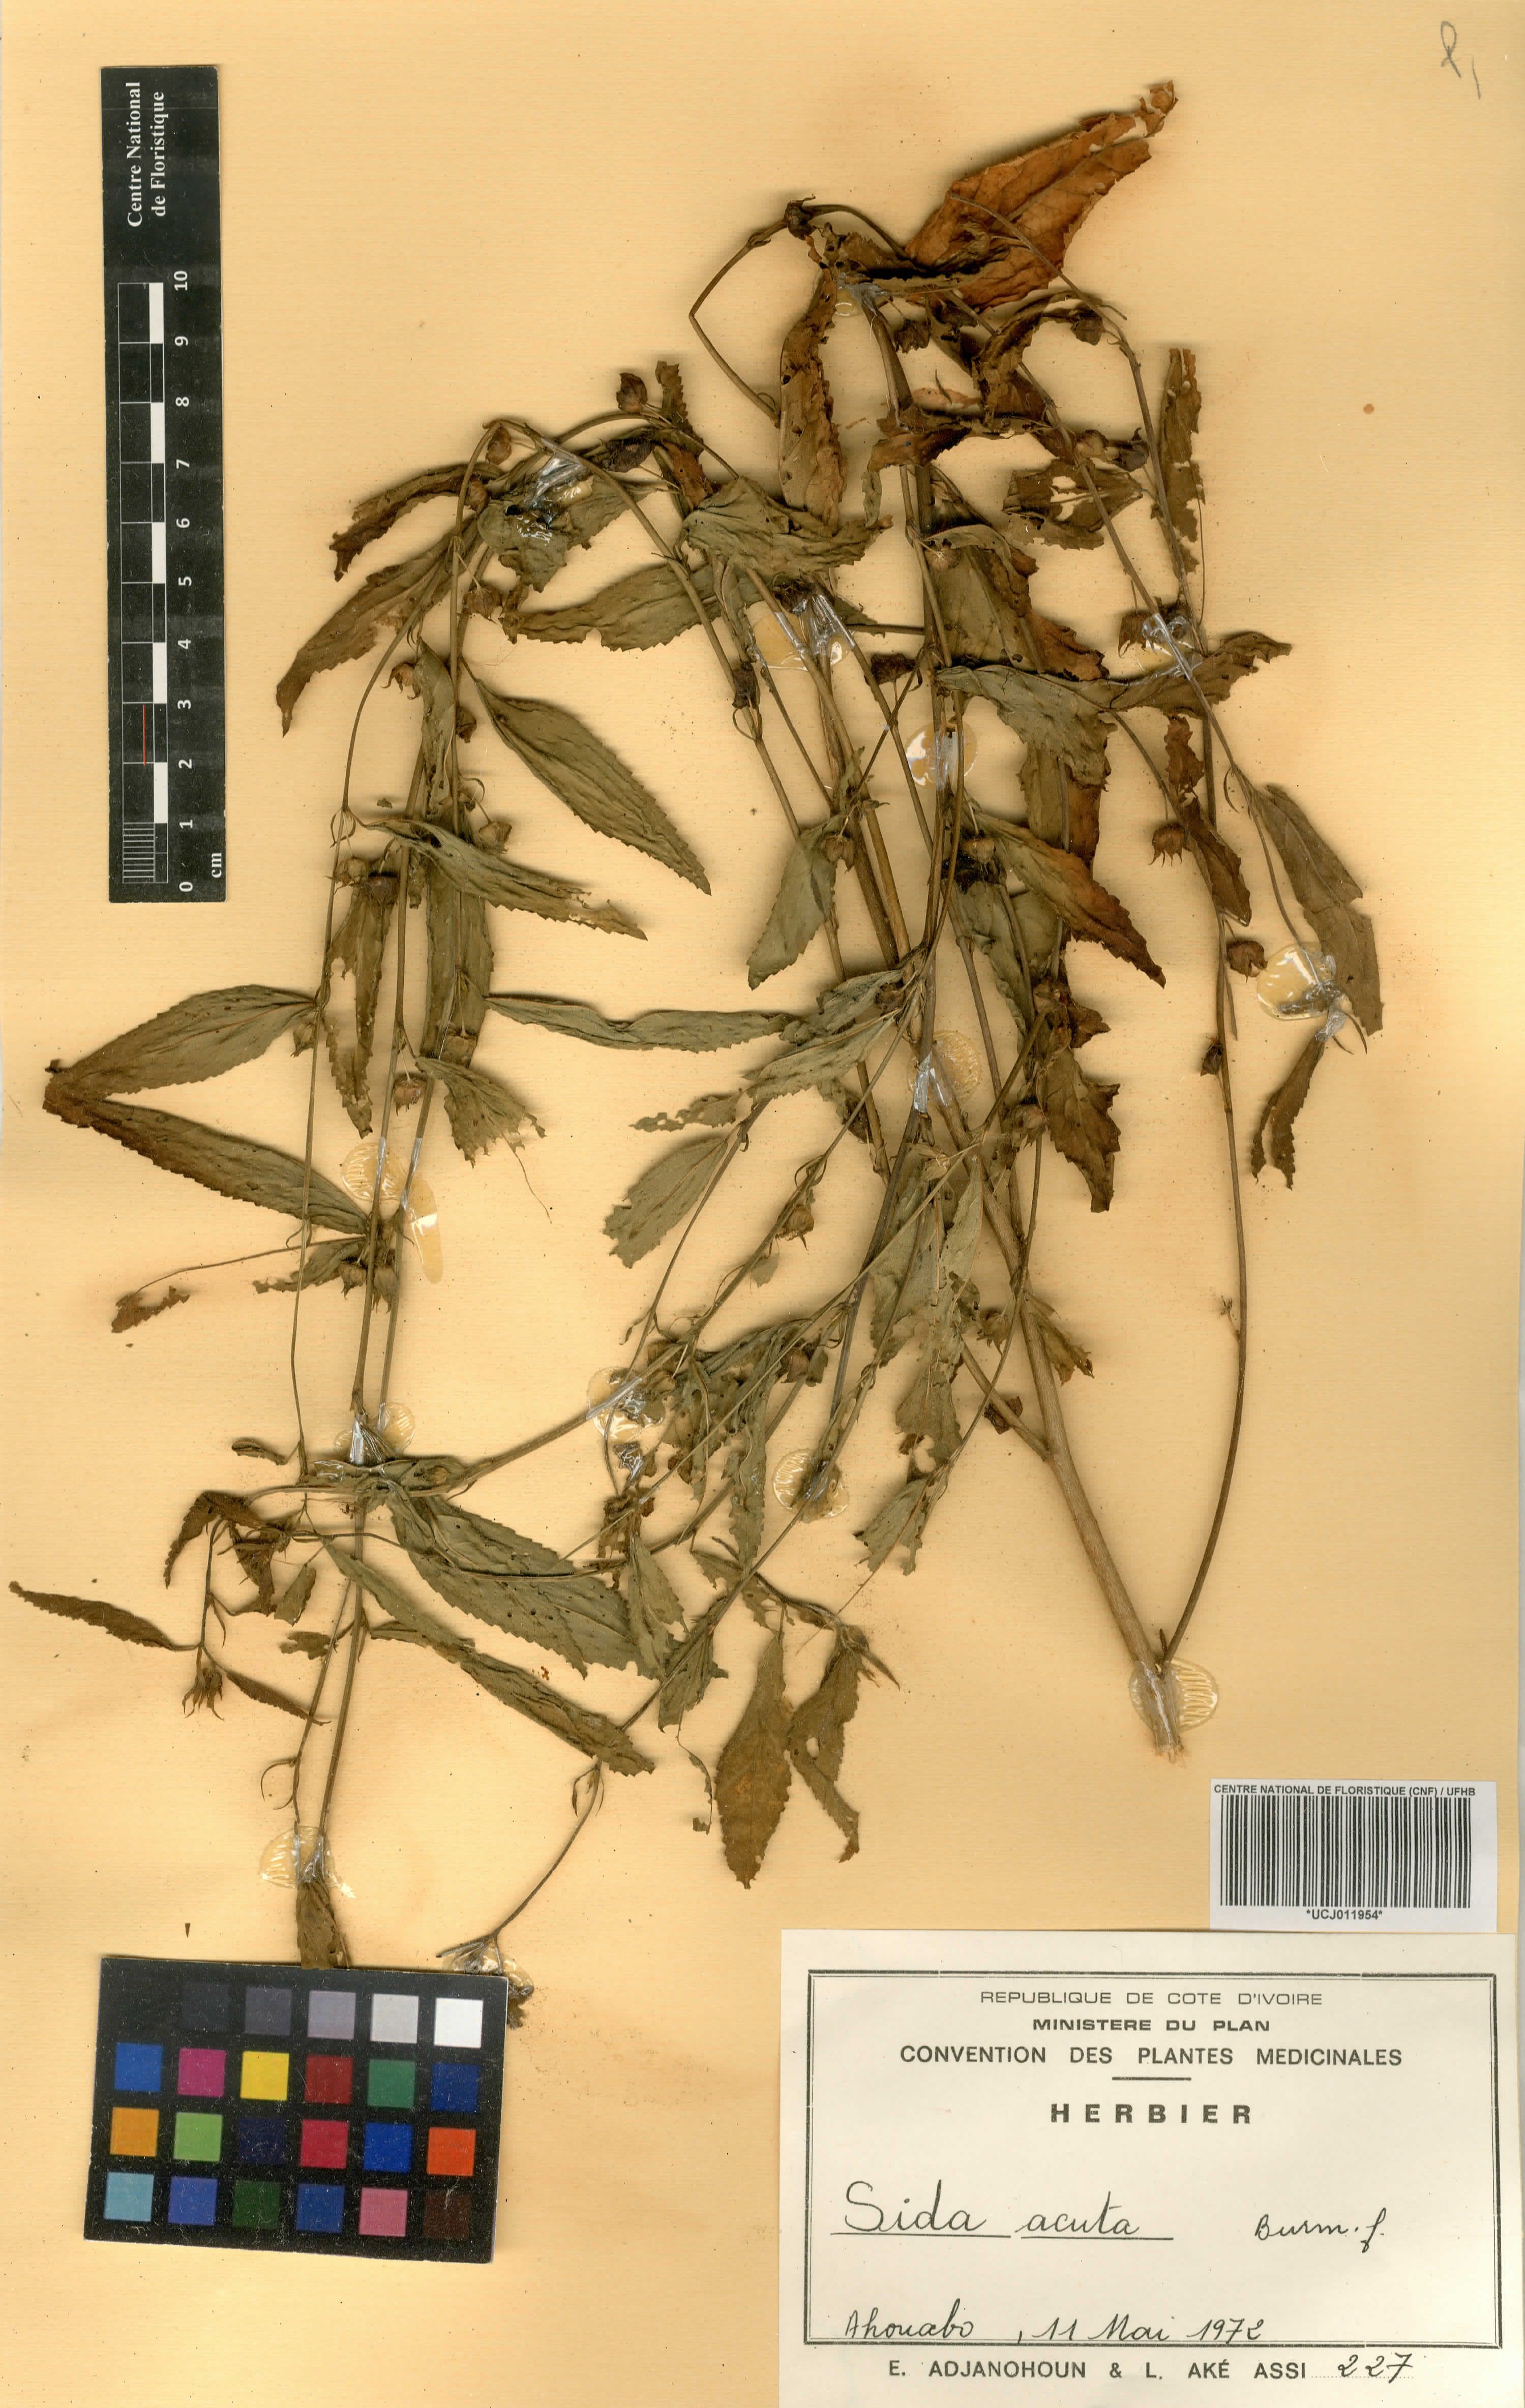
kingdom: Plantae
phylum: Tracheophyta
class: Magnoliopsida
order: Malvales
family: Malvaceae
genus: Sida
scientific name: Sida acuta
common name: Common wireweed
